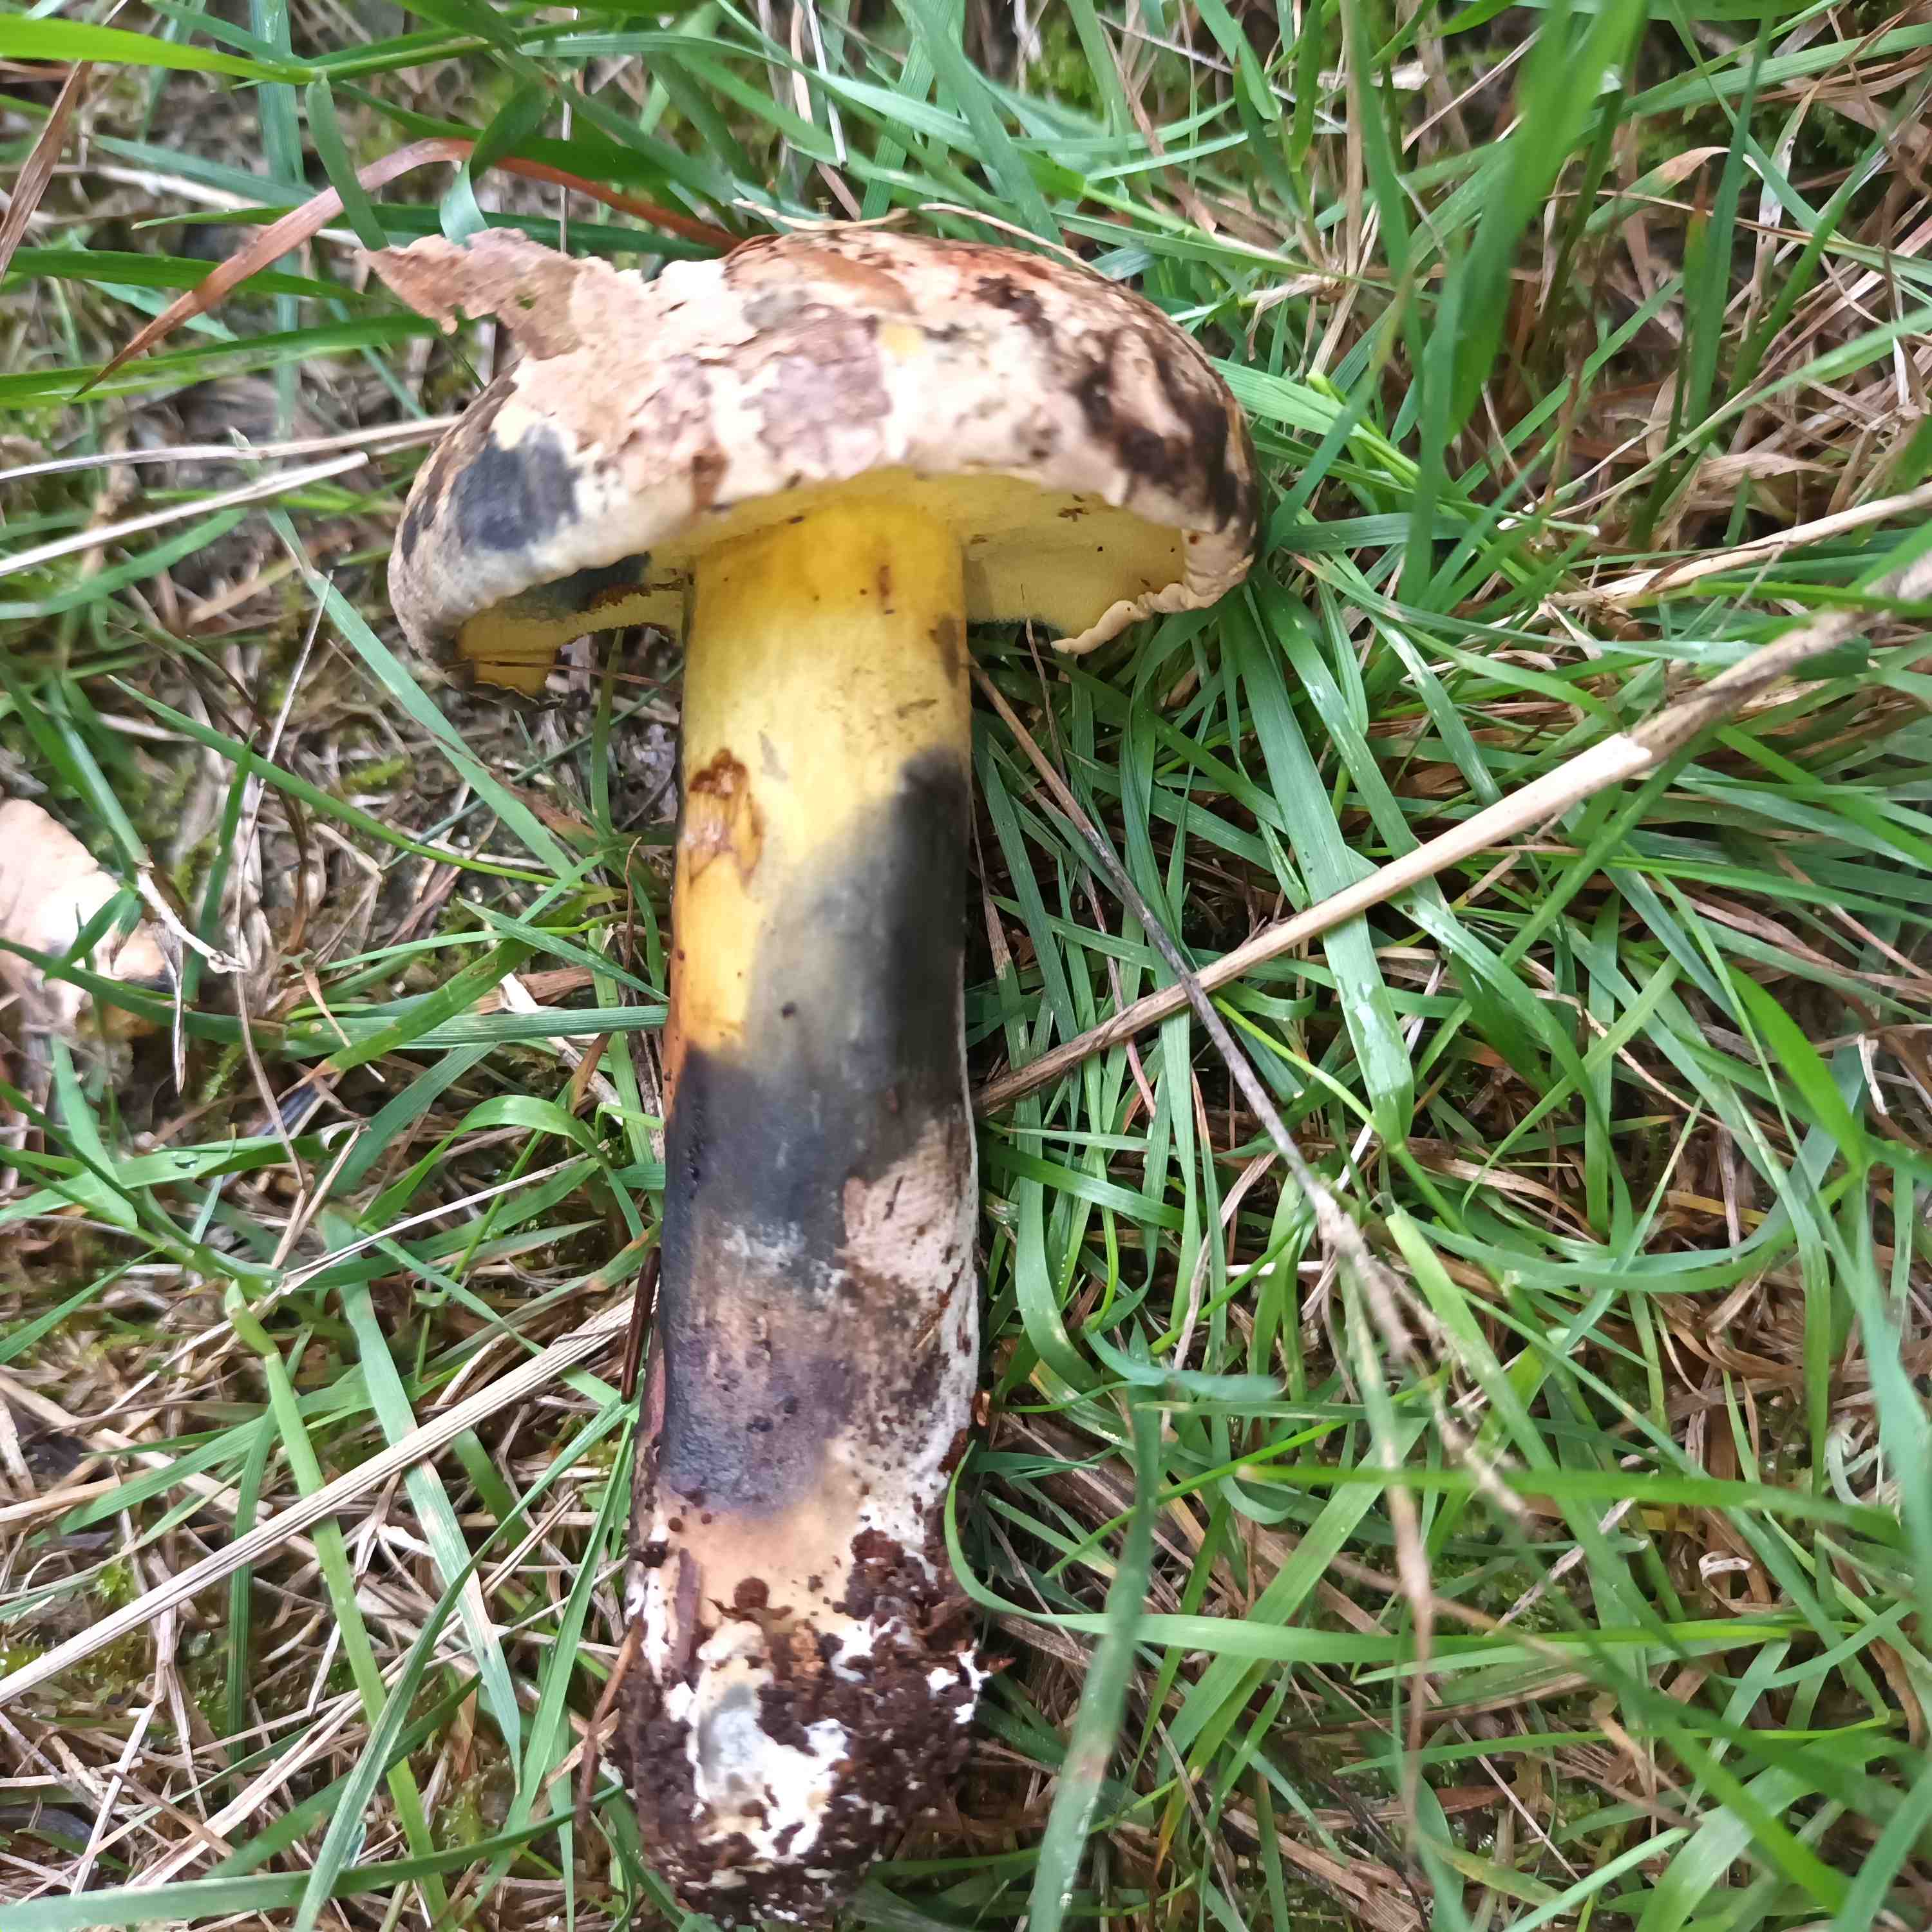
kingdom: Fungi
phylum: Basidiomycota
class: Agaricomycetes
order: Boletales
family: Boletaceae
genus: Cyanoboletus
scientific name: Cyanoboletus pulverulentus
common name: sortblånende rørhat
